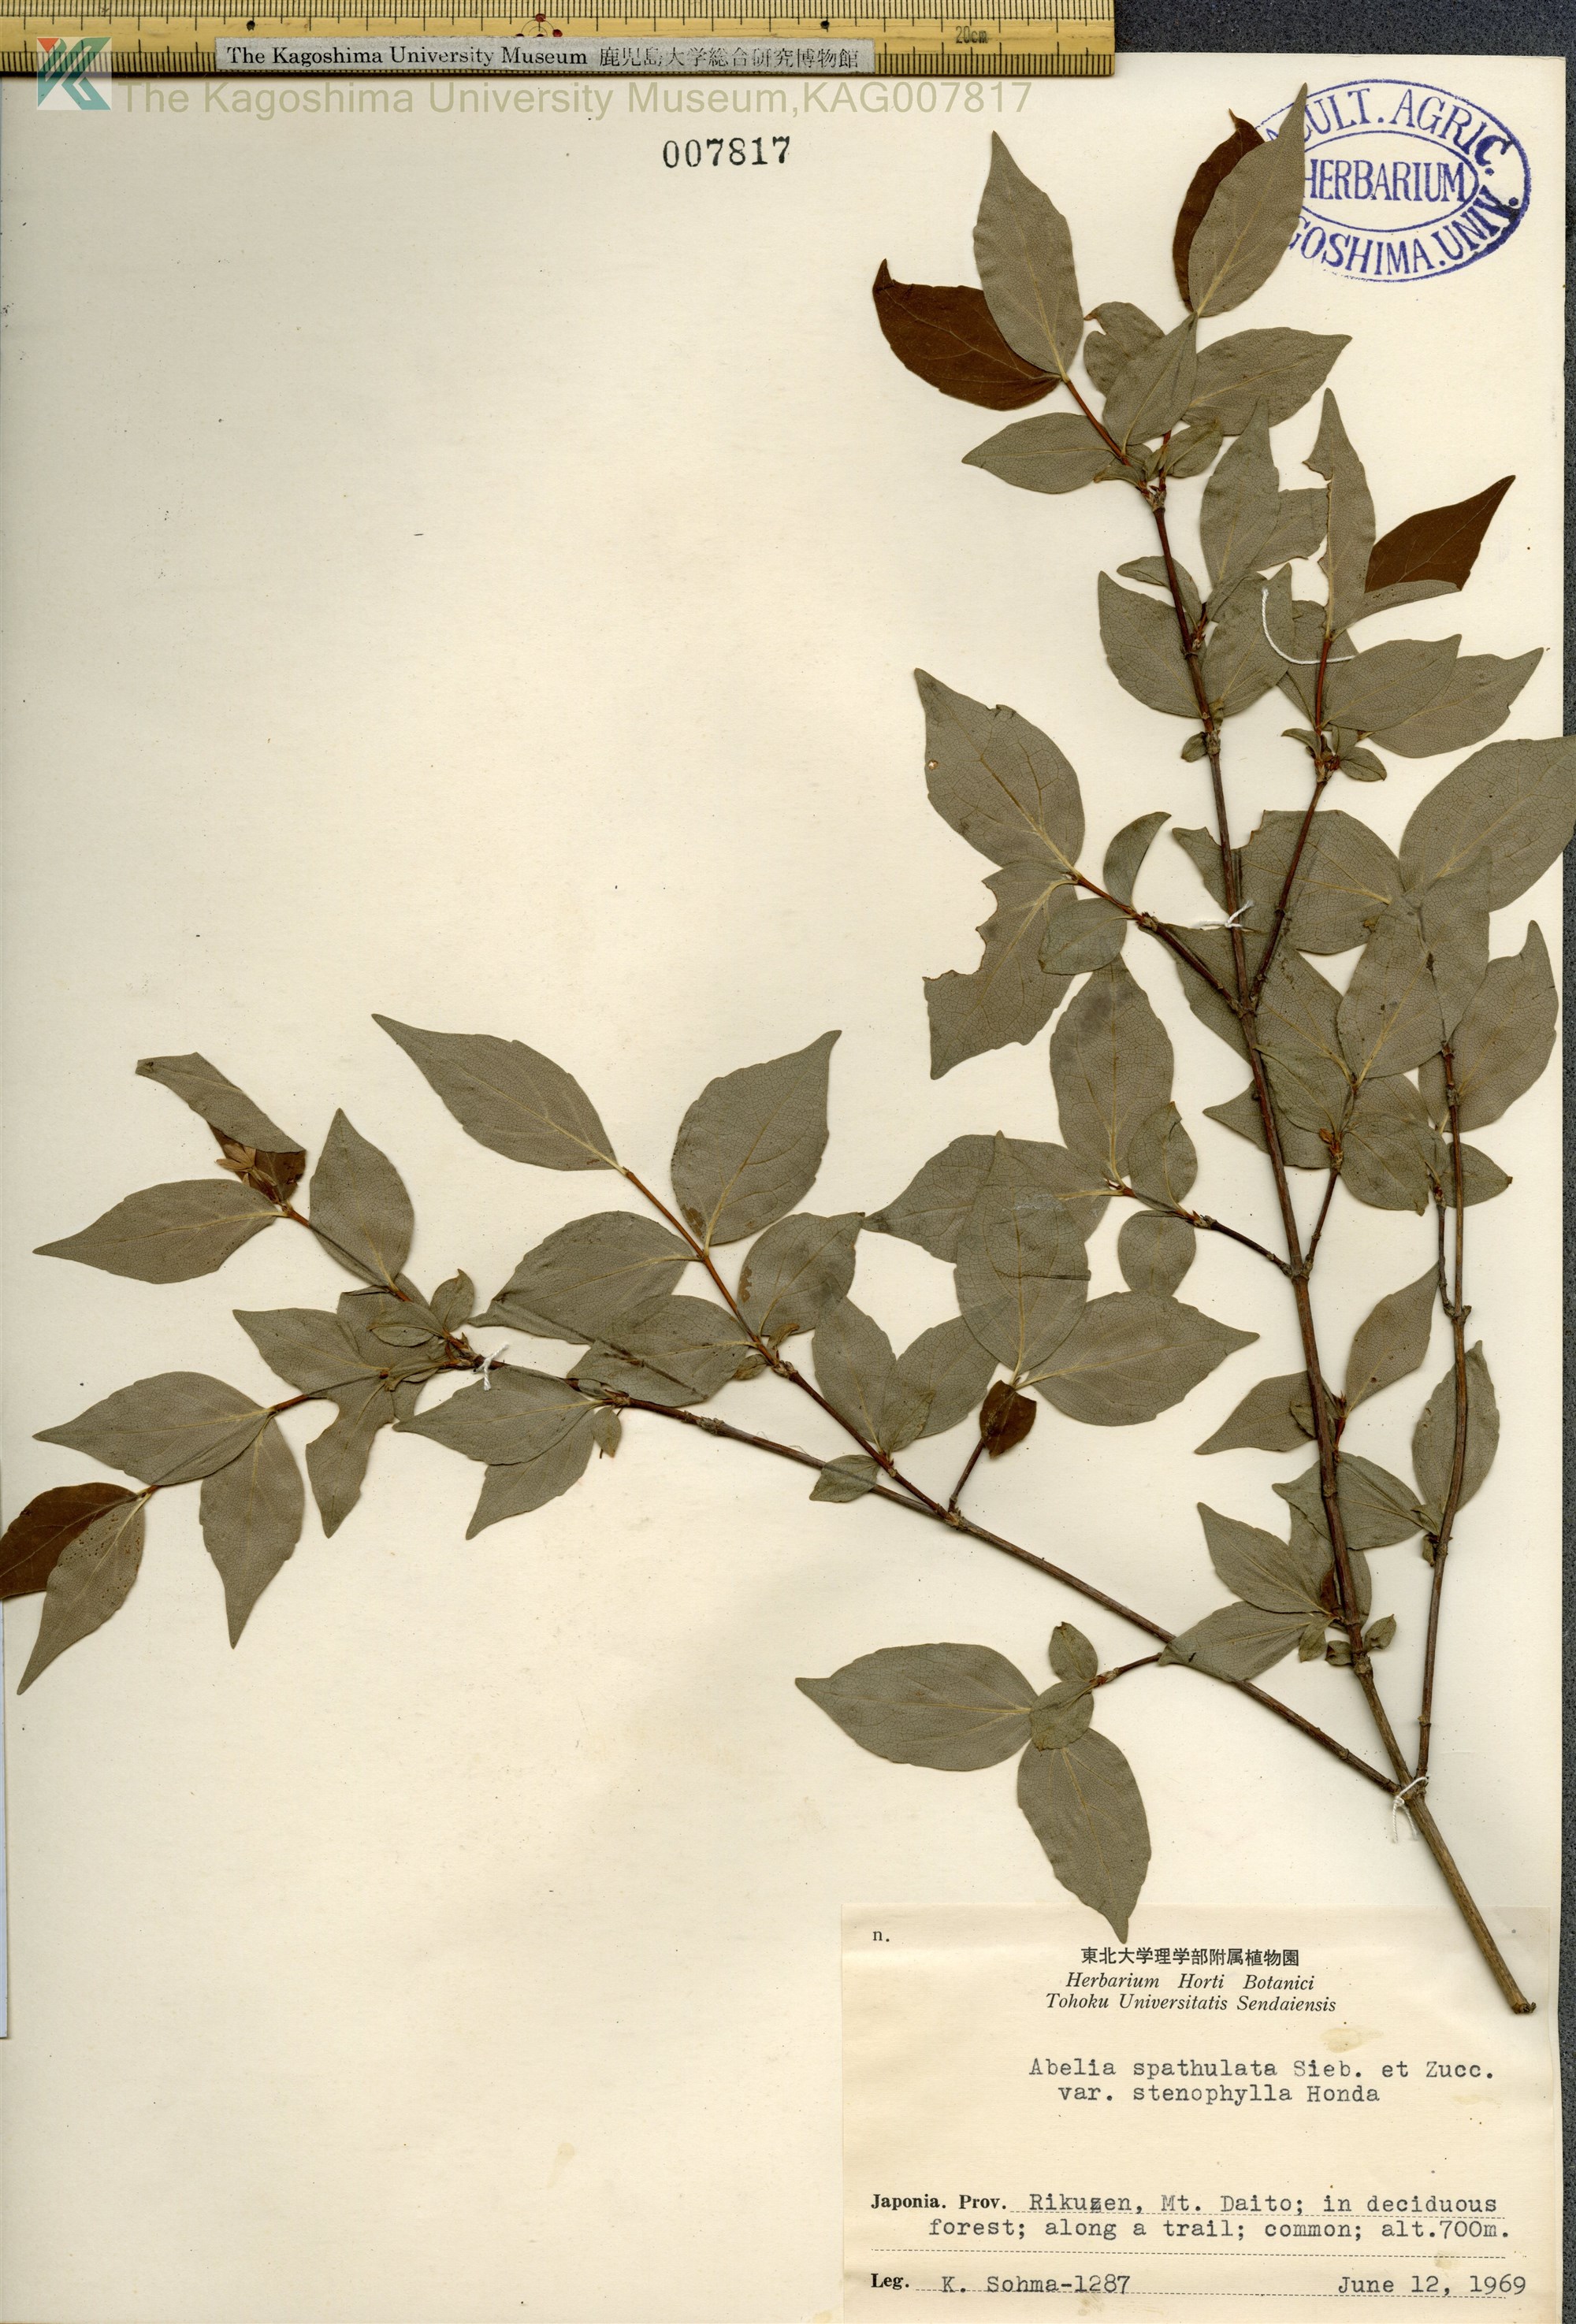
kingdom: Plantae
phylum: Tracheophyta
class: Magnoliopsida
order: Dipsacales
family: Caprifoliaceae
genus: Diabelia
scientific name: Diabelia spathulata
